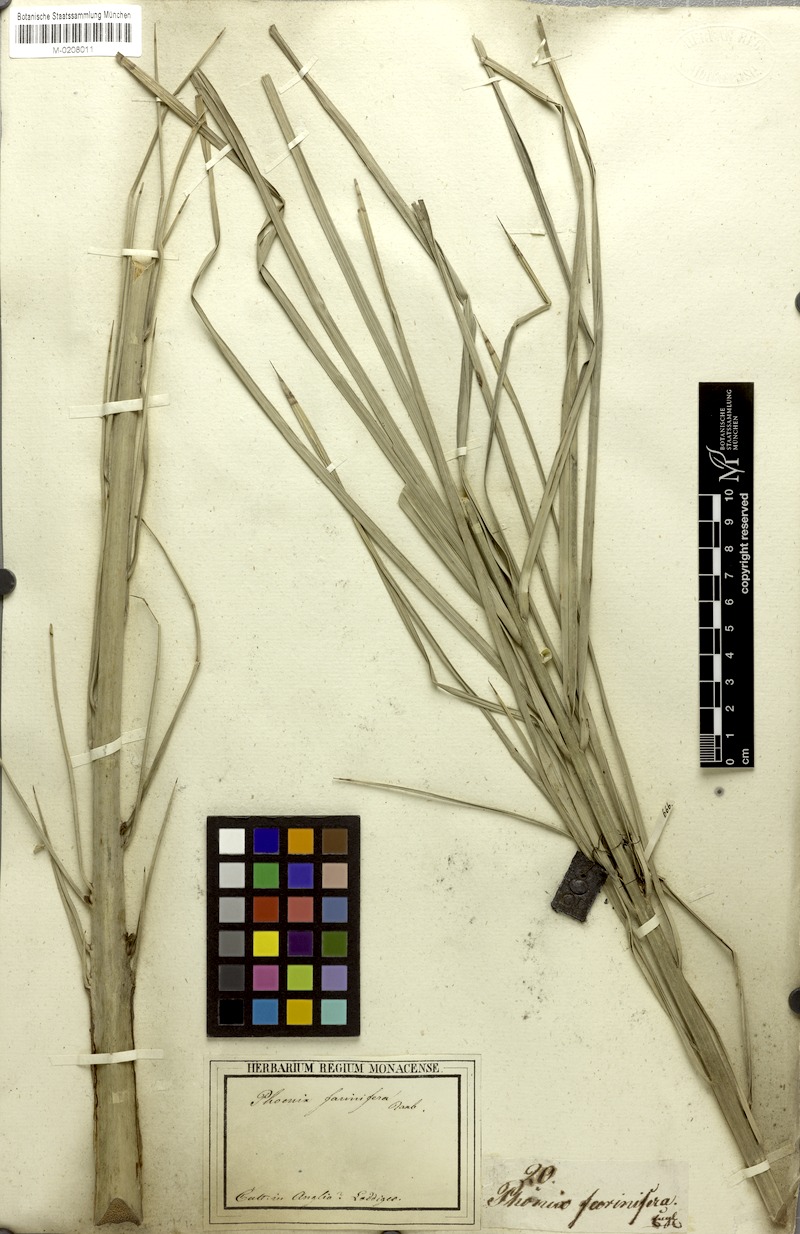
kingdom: Plantae
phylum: Tracheophyta
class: Liliopsida
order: Arecales
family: Arecaceae
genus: Phoenix
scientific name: Phoenix pusilla
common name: Flour palm
